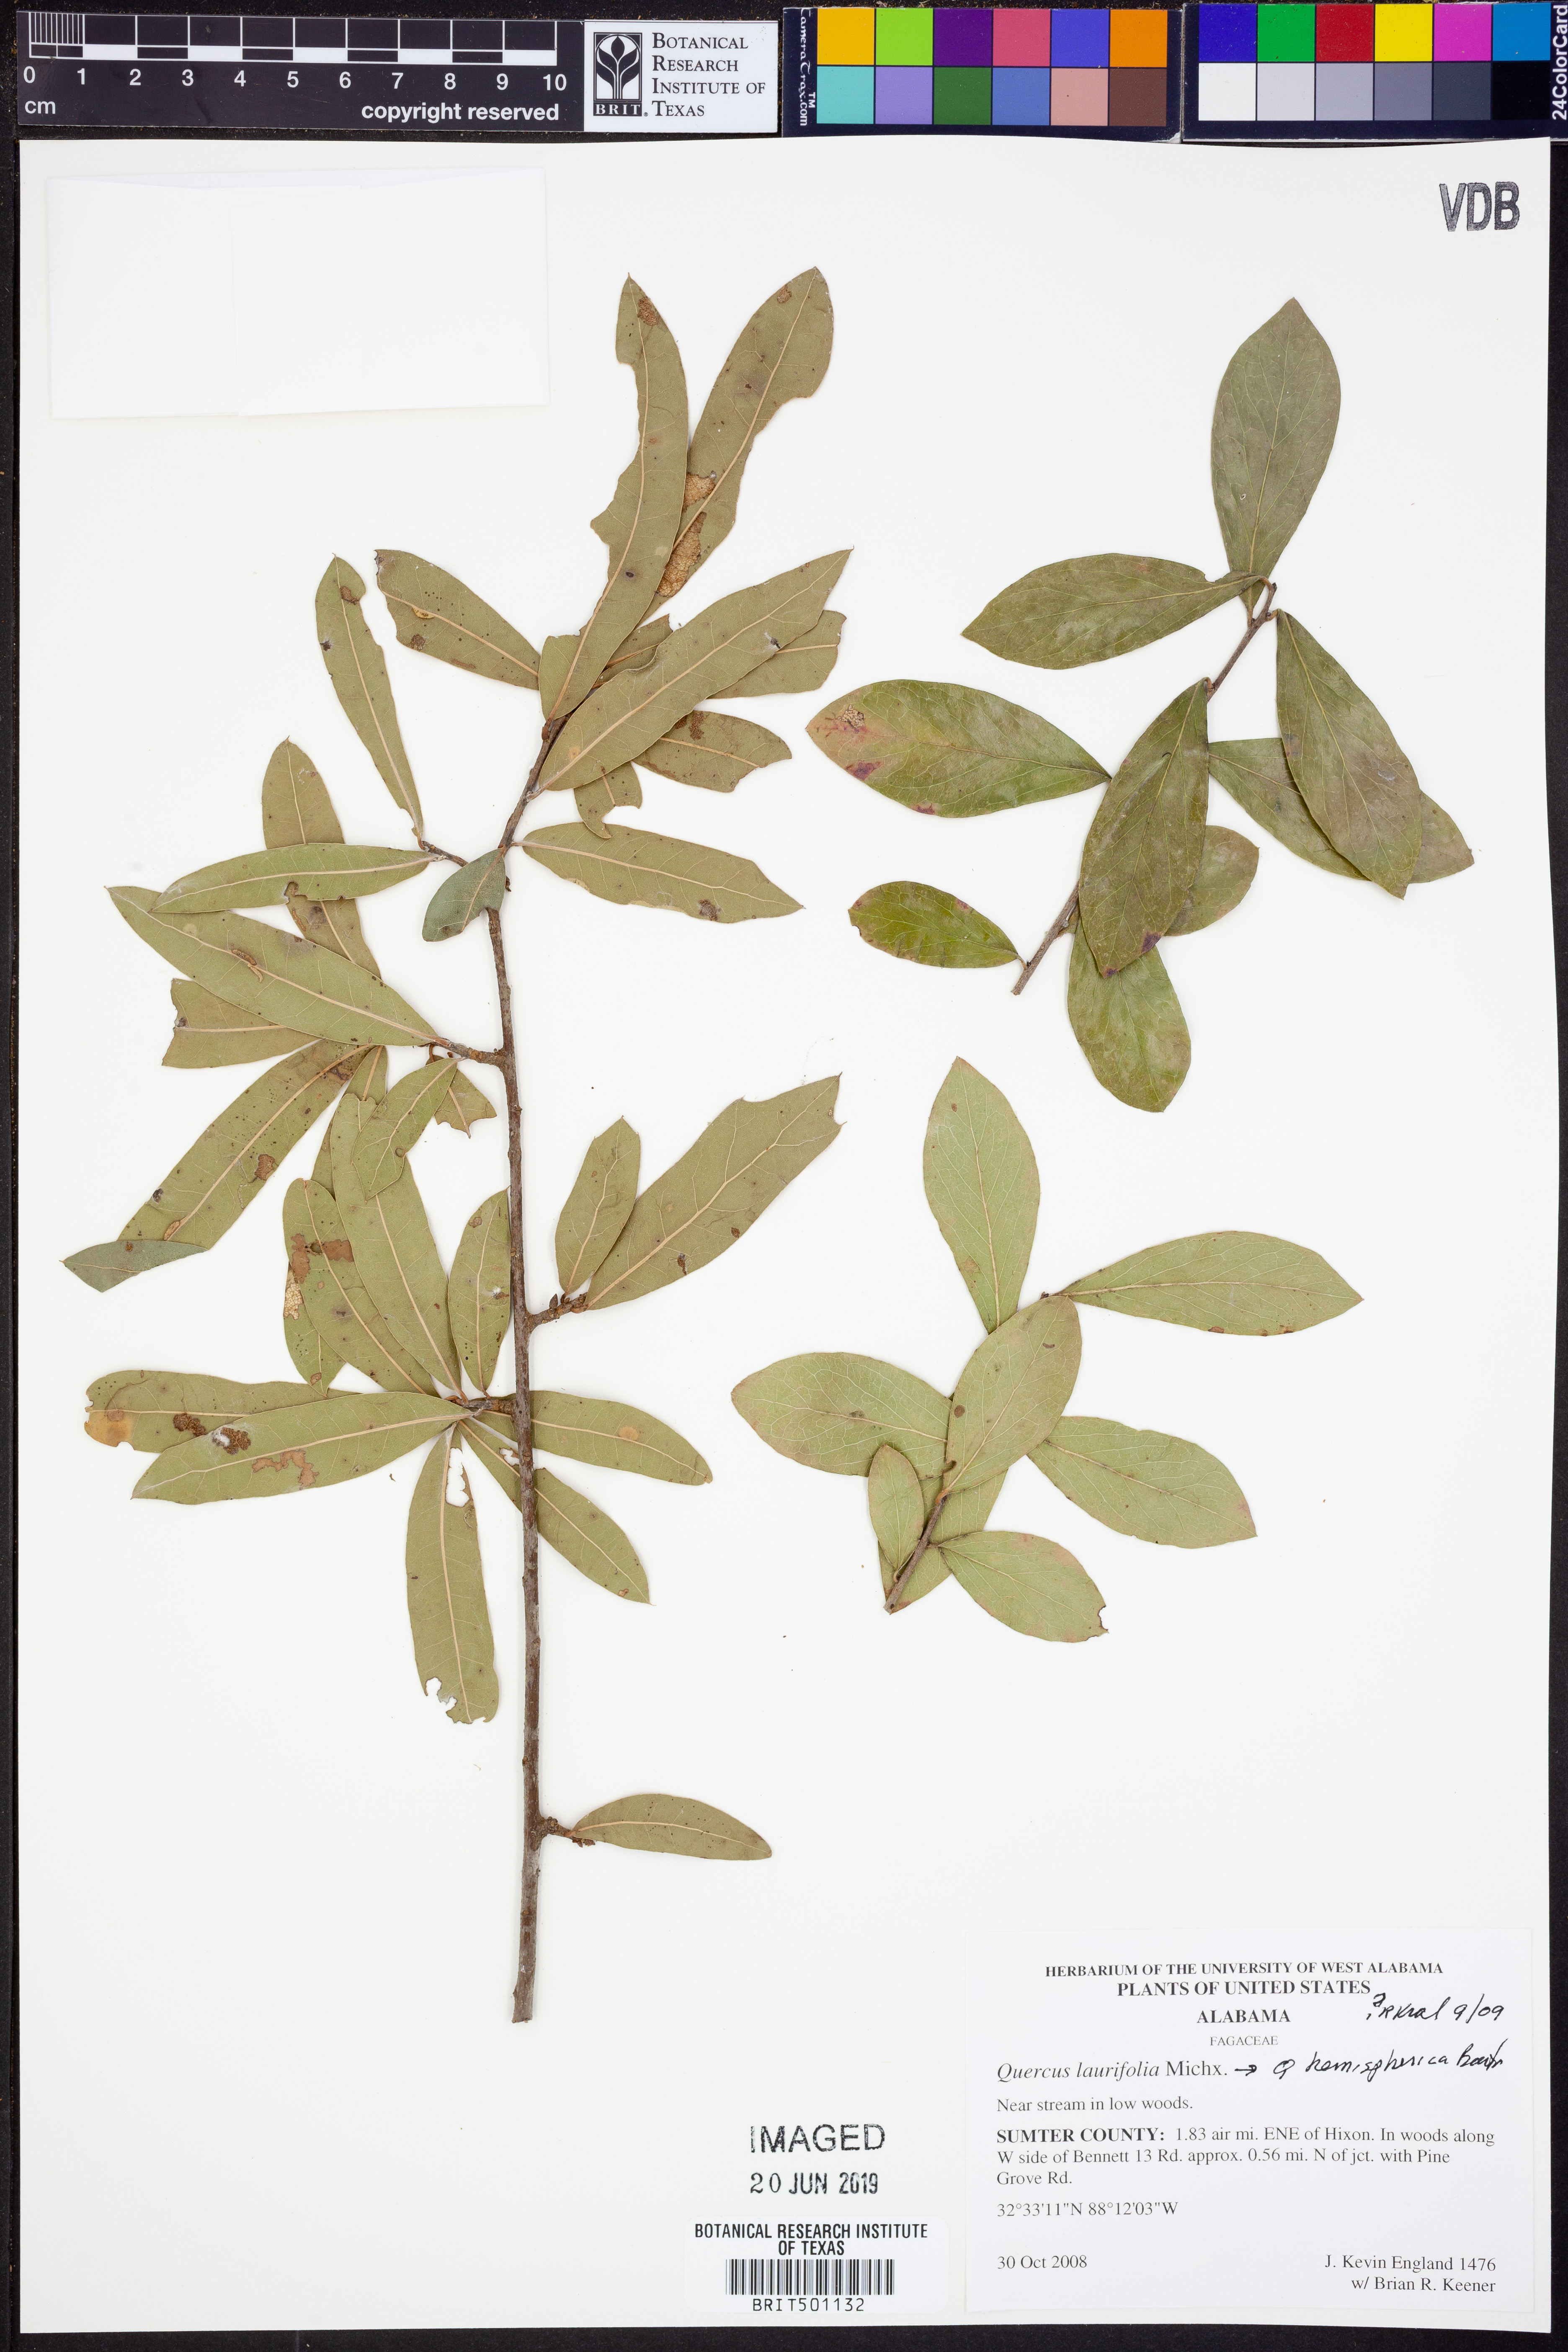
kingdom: Plantae
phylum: Tracheophyta
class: Magnoliopsida
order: Fagales
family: Fagaceae
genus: Quercus
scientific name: Quercus laurifolia
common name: Swamp laurel oak
